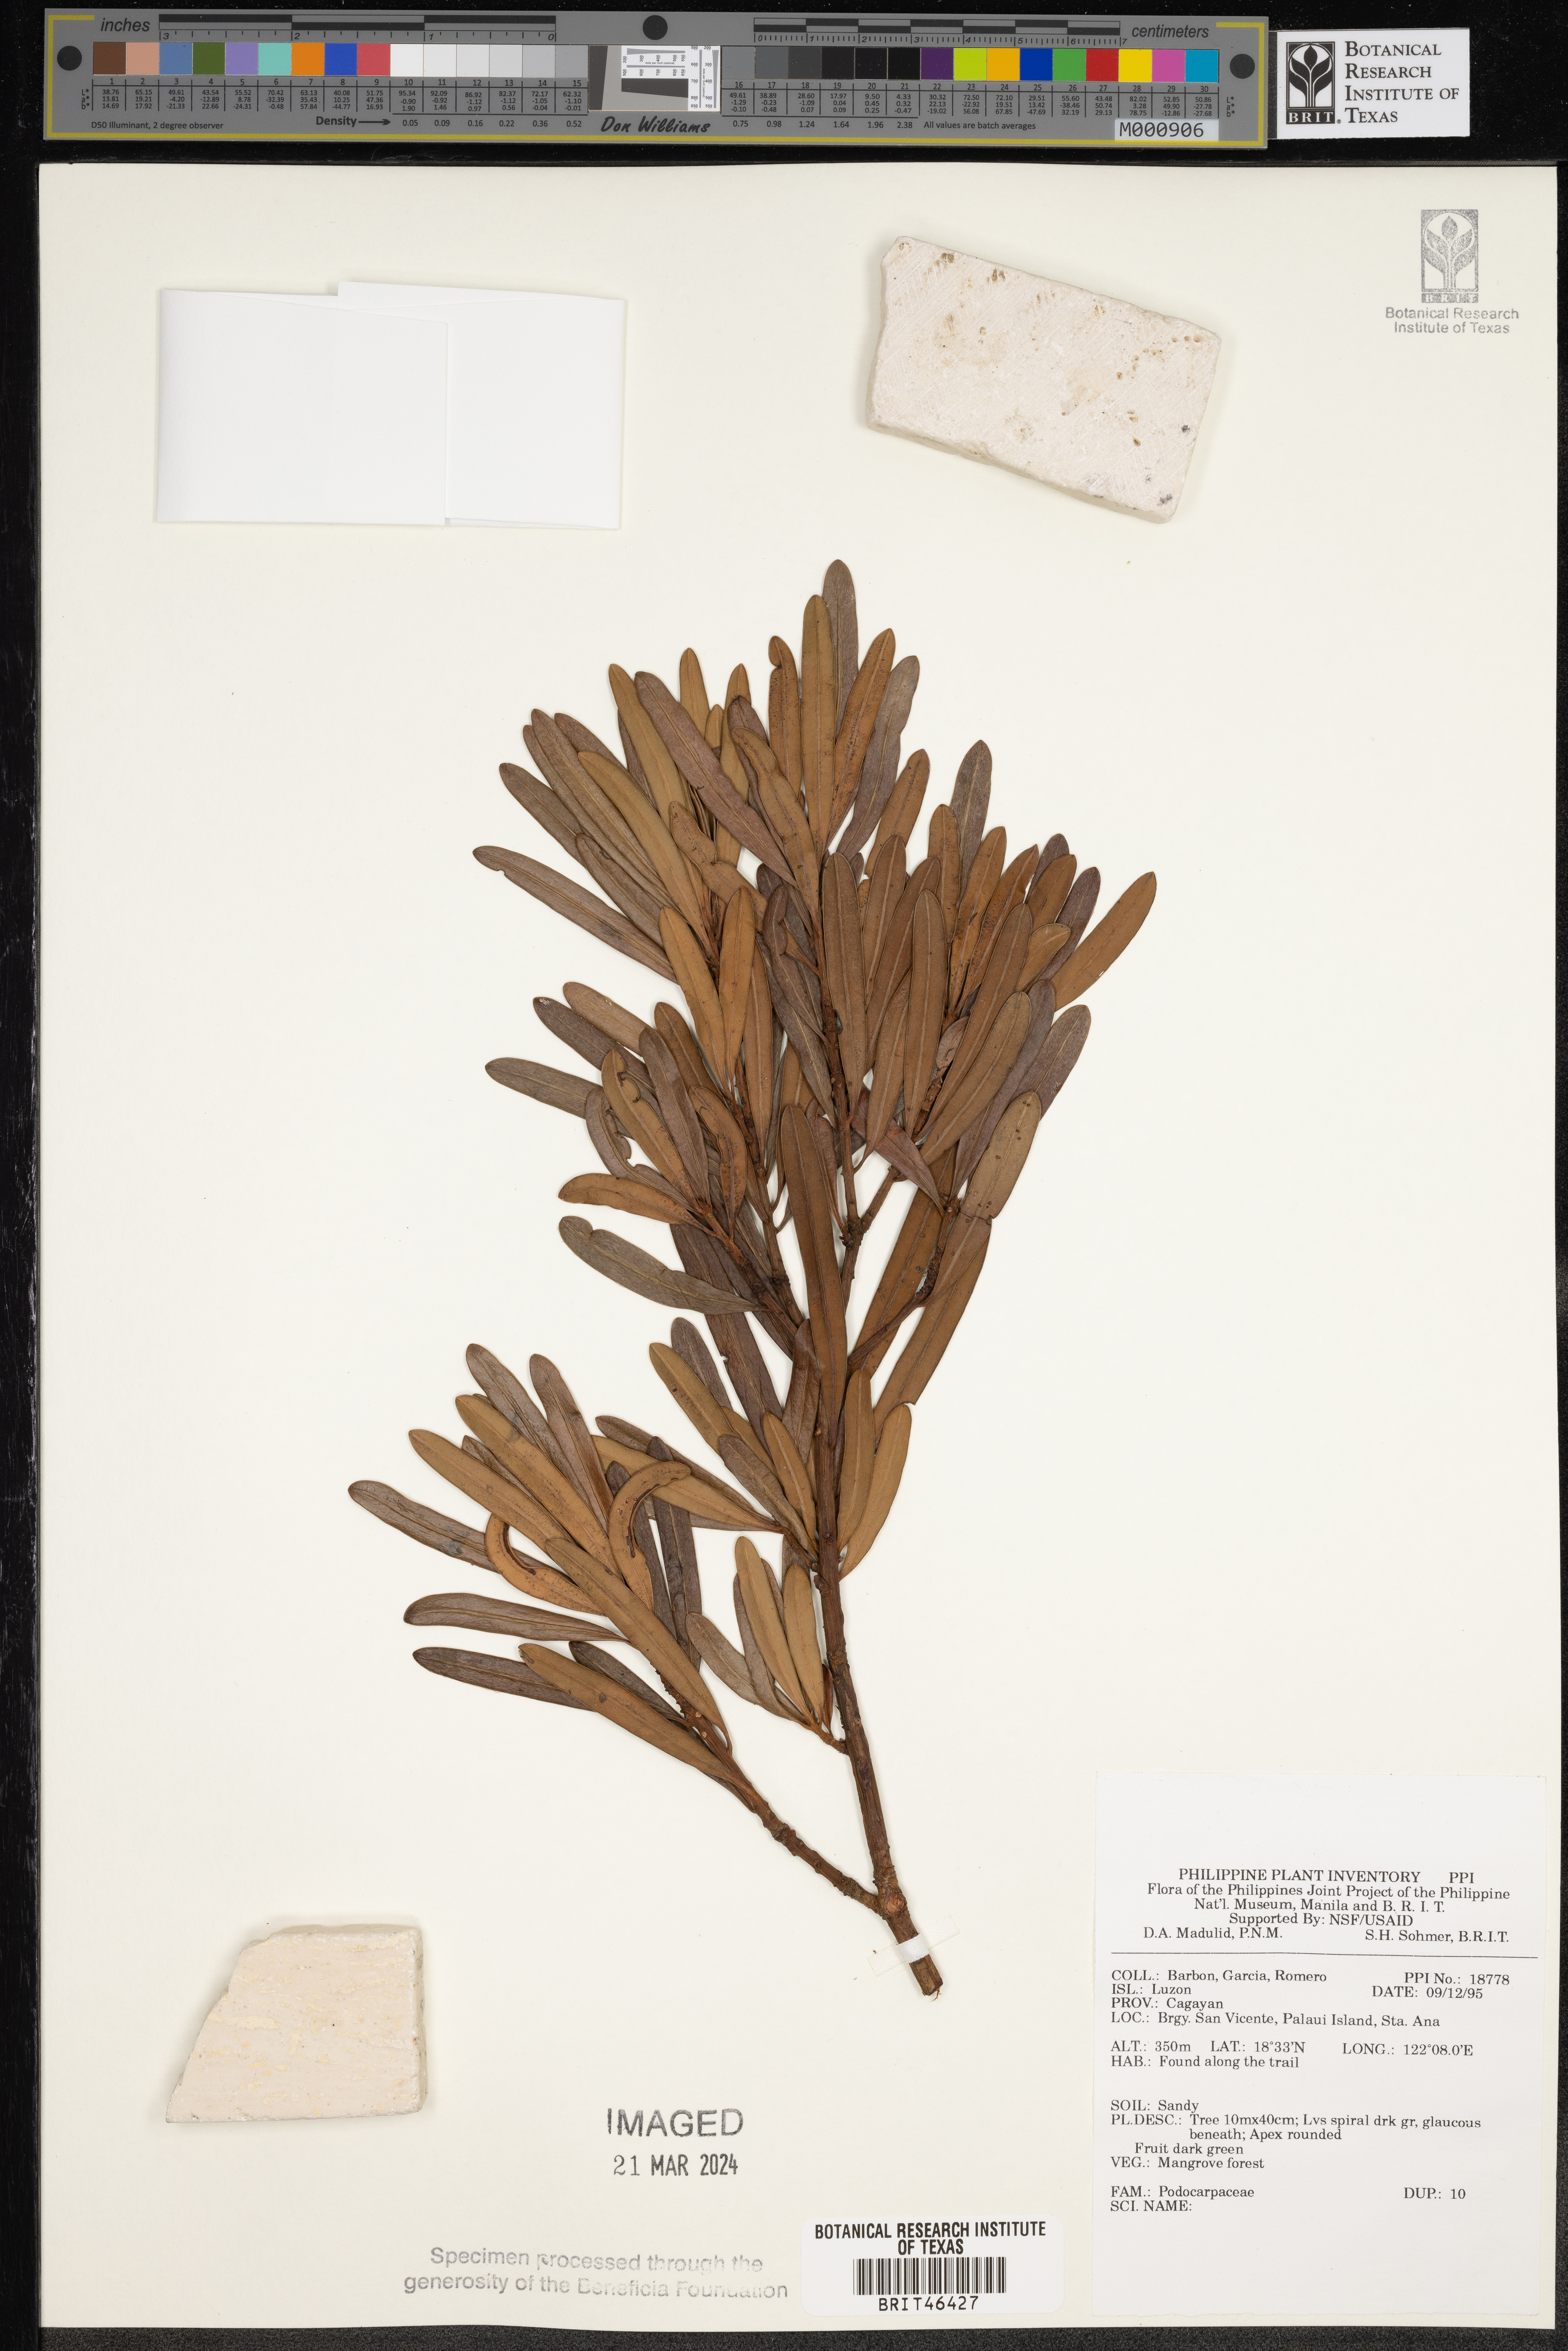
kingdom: Plantae
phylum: Tracheophyta
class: Pinopsida
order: Pinales
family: Podocarpaceae
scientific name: Podocarpaceae
